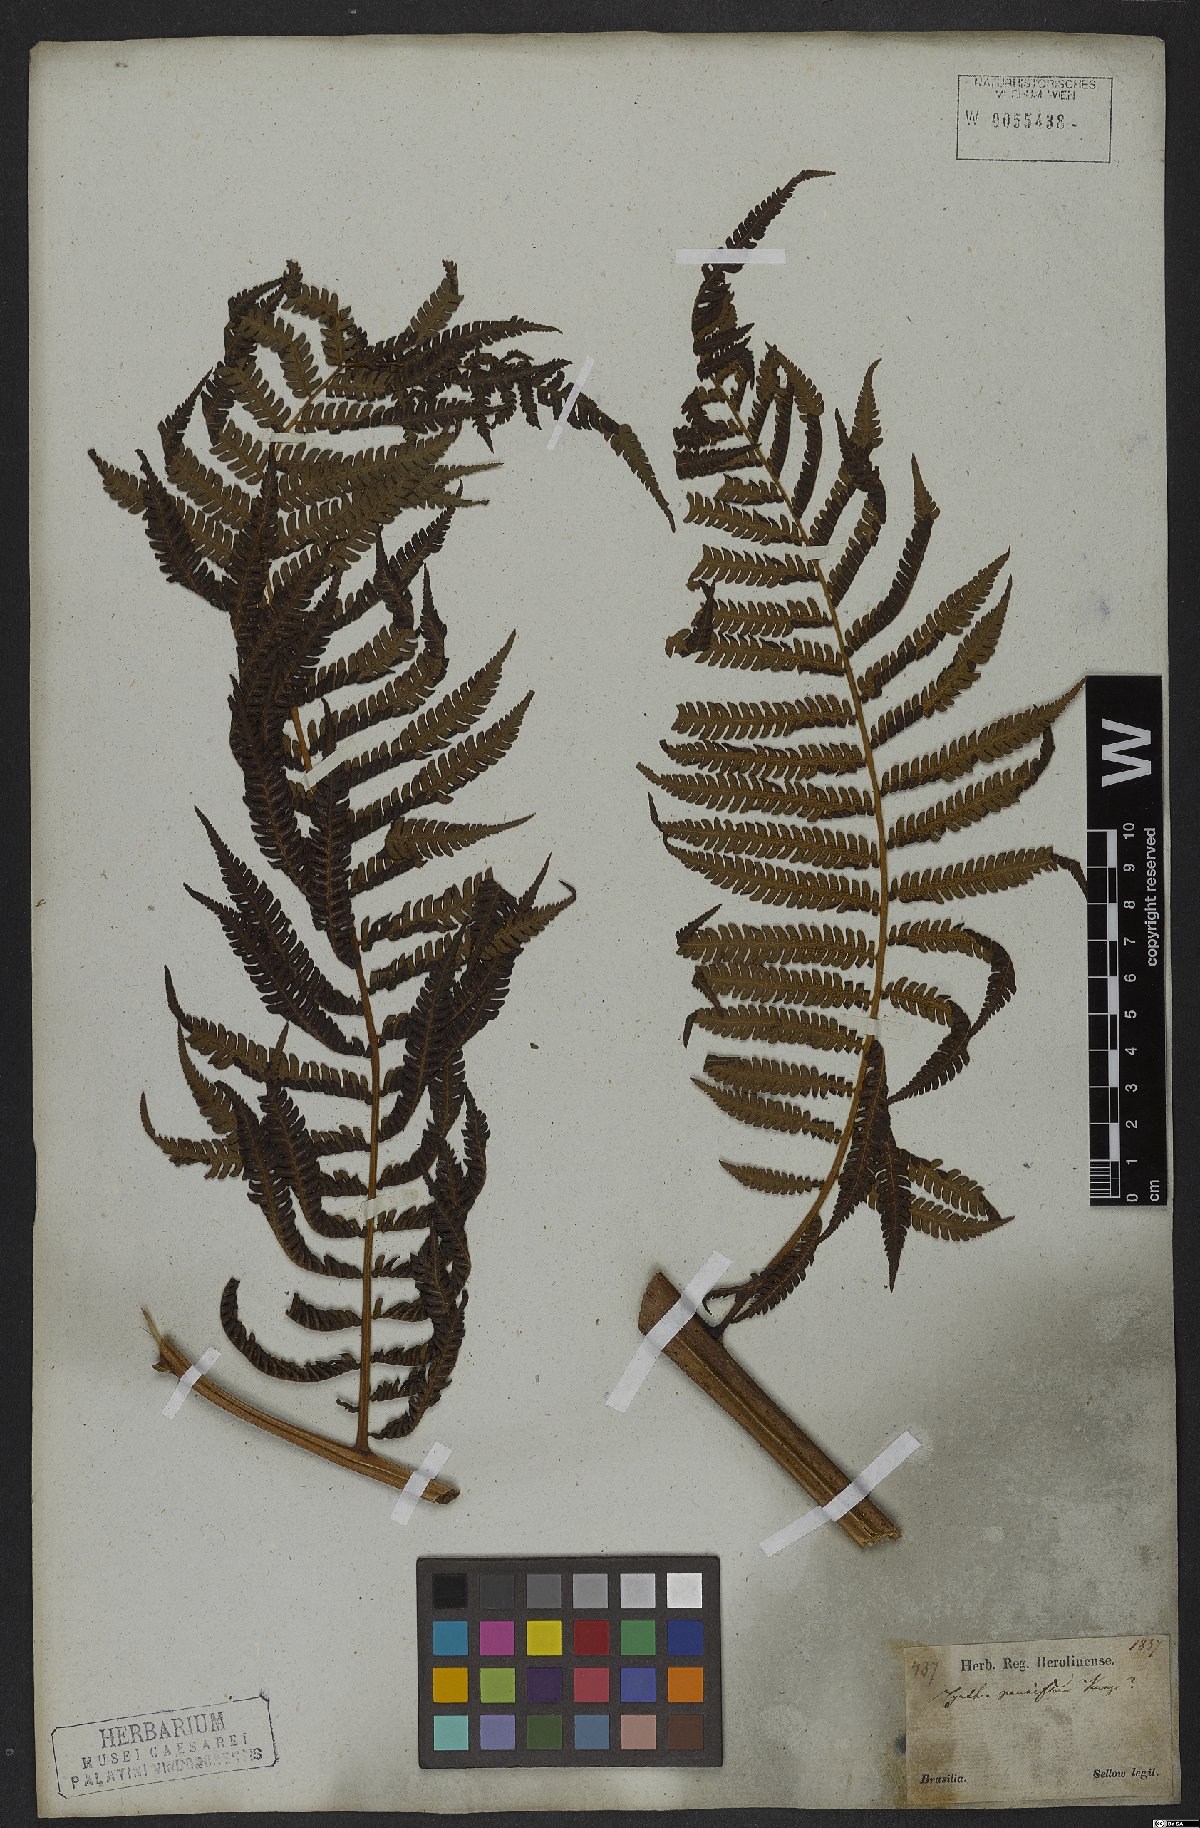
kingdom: Plantae
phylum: Tracheophyta
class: Polypodiopsida
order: Cyatheales
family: Cyatheaceae
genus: Cyathea
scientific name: Cyathea atrovirens
